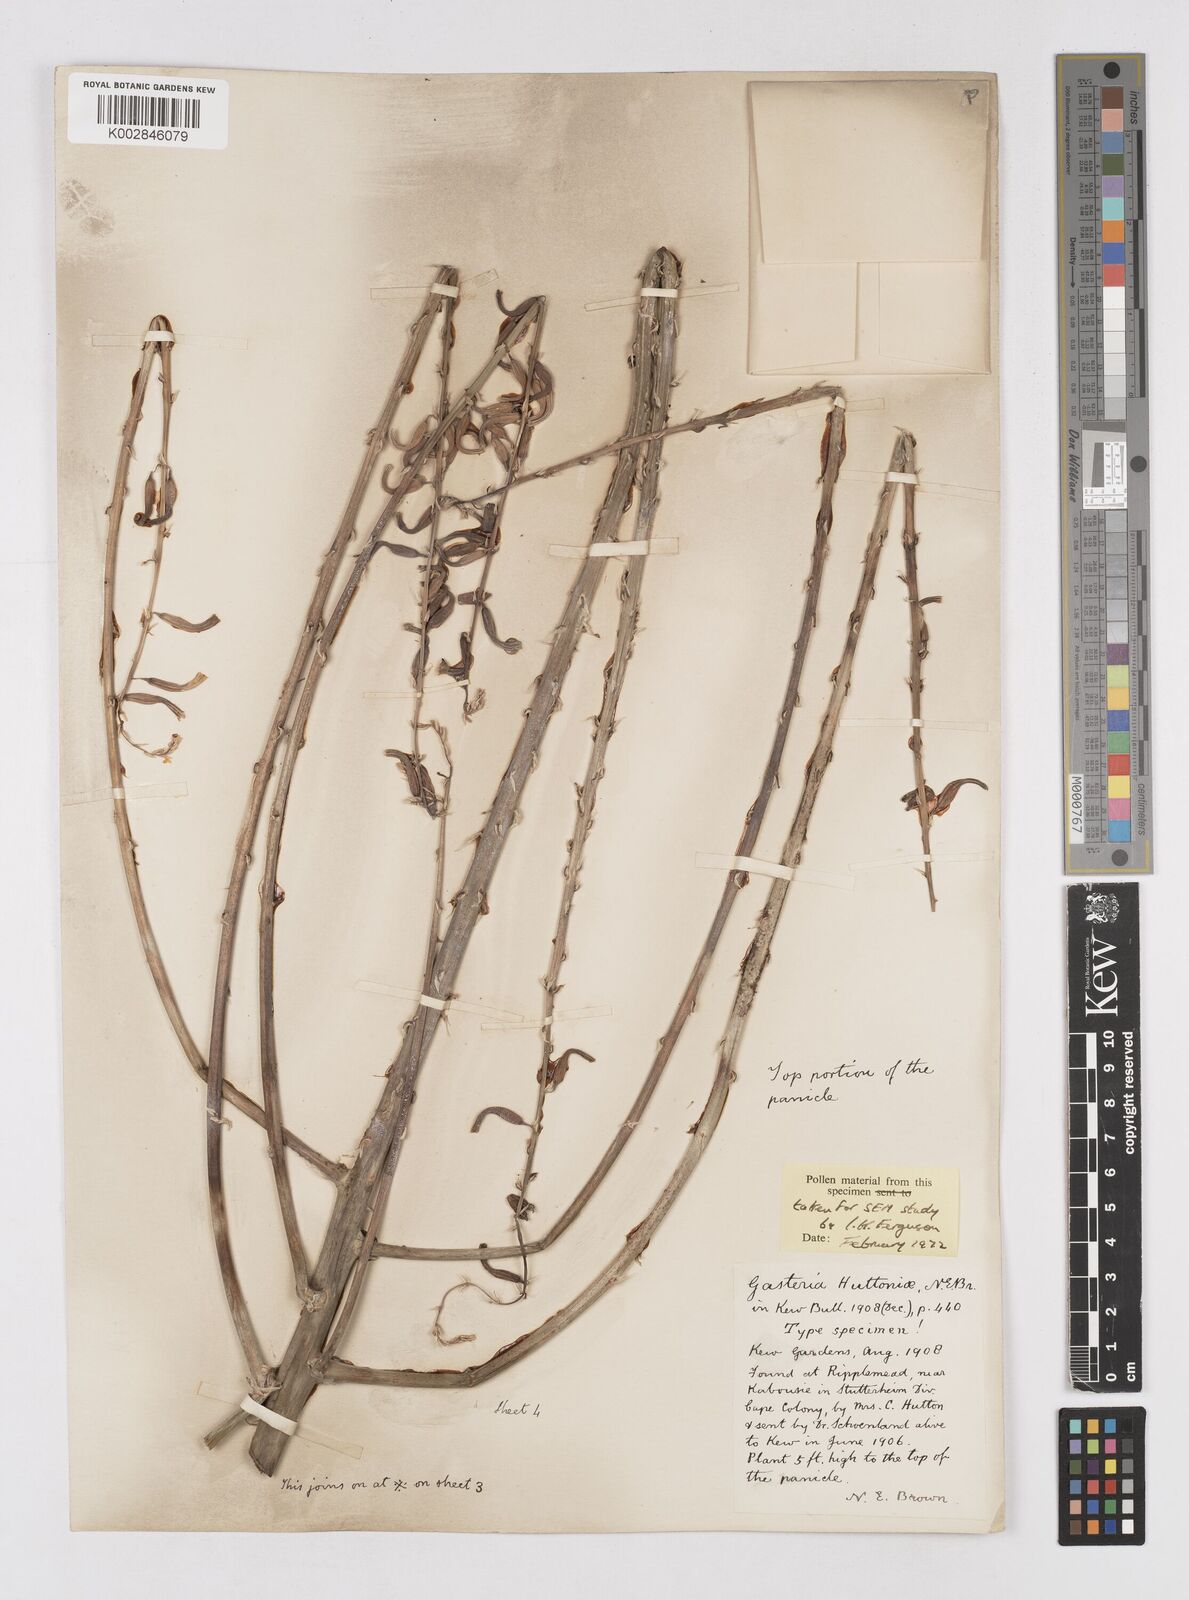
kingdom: Plantae
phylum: Tracheophyta
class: Liliopsida
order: Asparagales
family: Asphodelaceae
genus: Gasteria
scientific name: Gasteria acinacifolia
